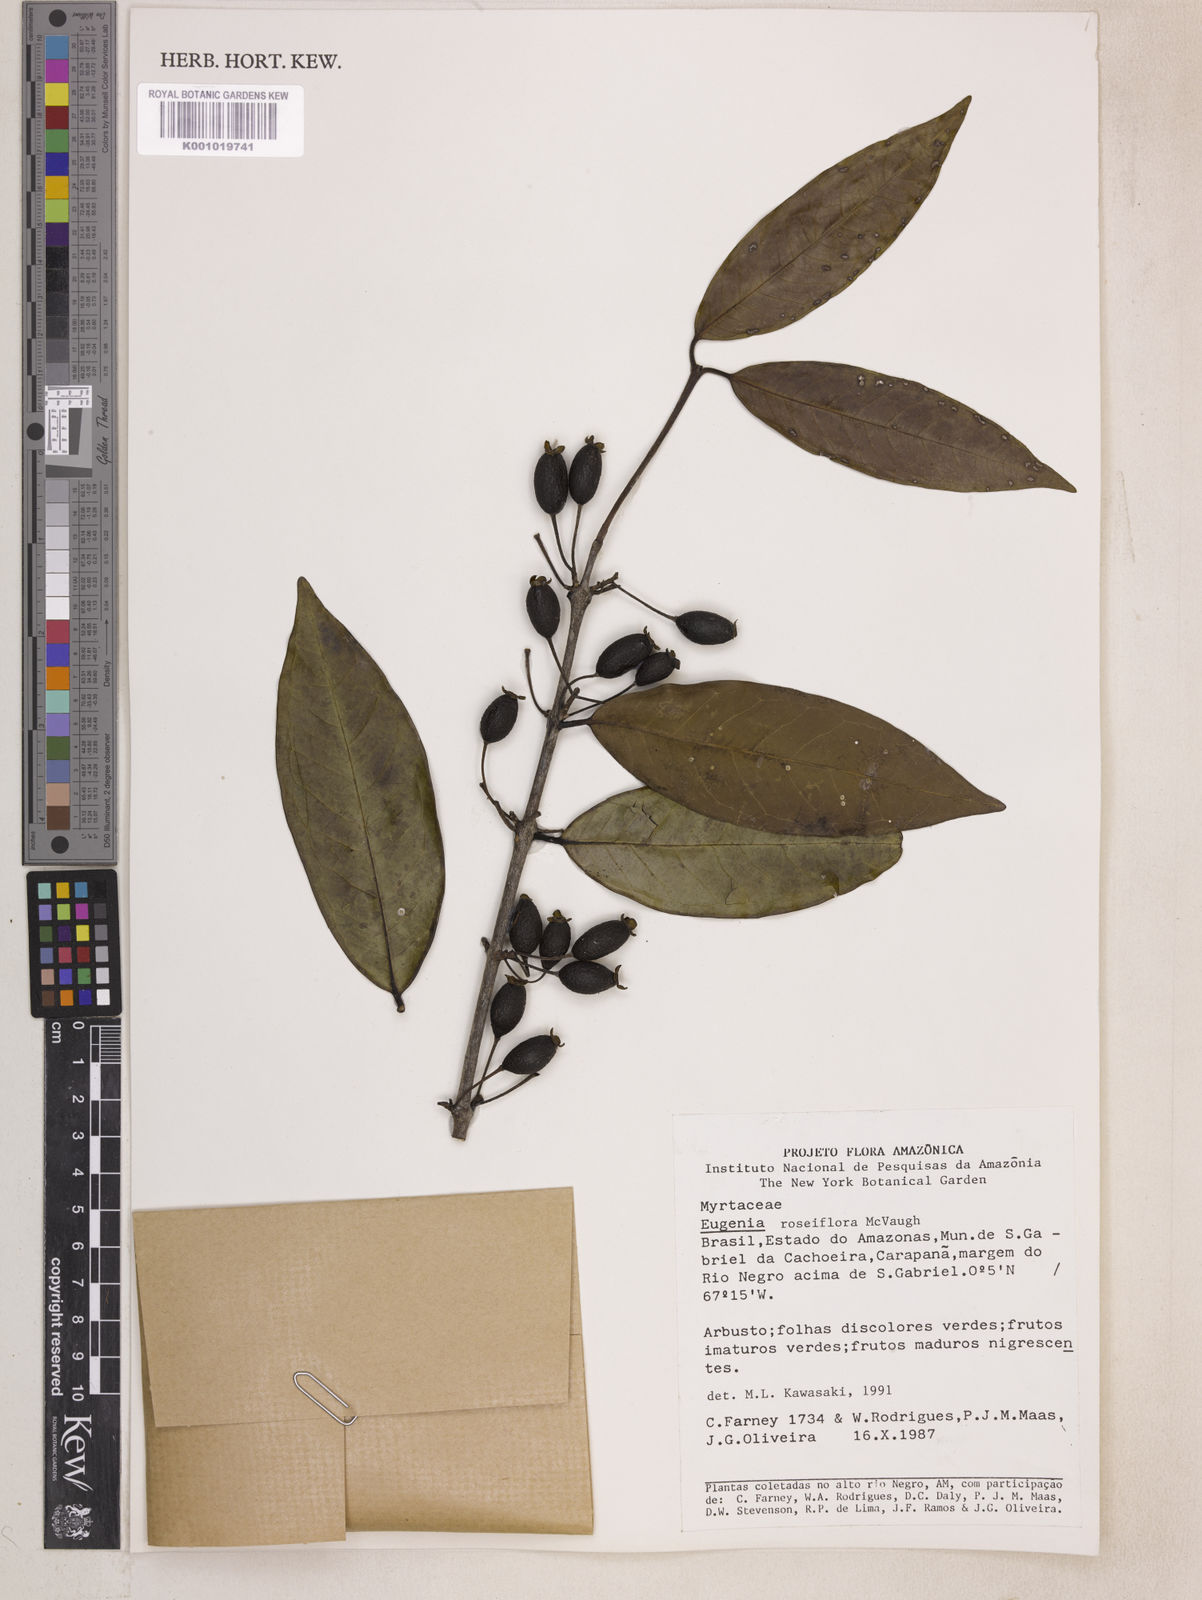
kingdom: Plantae
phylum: Tracheophyta
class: Magnoliopsida
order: Myrtales
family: Myrtaceae
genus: Eugenia
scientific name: Eugenia roseiflora
